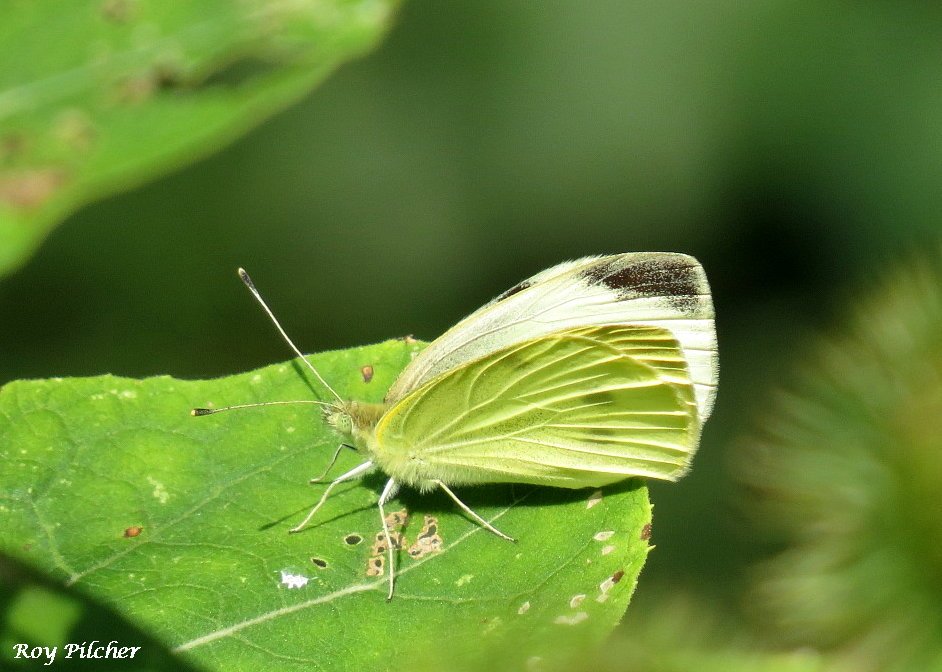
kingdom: Animalia
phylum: Arthropoda
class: Insecta
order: Lepidoptera
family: Pieridae
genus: Pieris
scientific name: Pieris rapae
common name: Cabbage White
